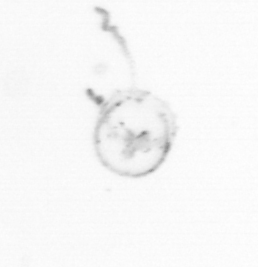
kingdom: Chromista
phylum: Ochrophyta
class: Bacillariophyceae
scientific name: Bacillariophyceae
